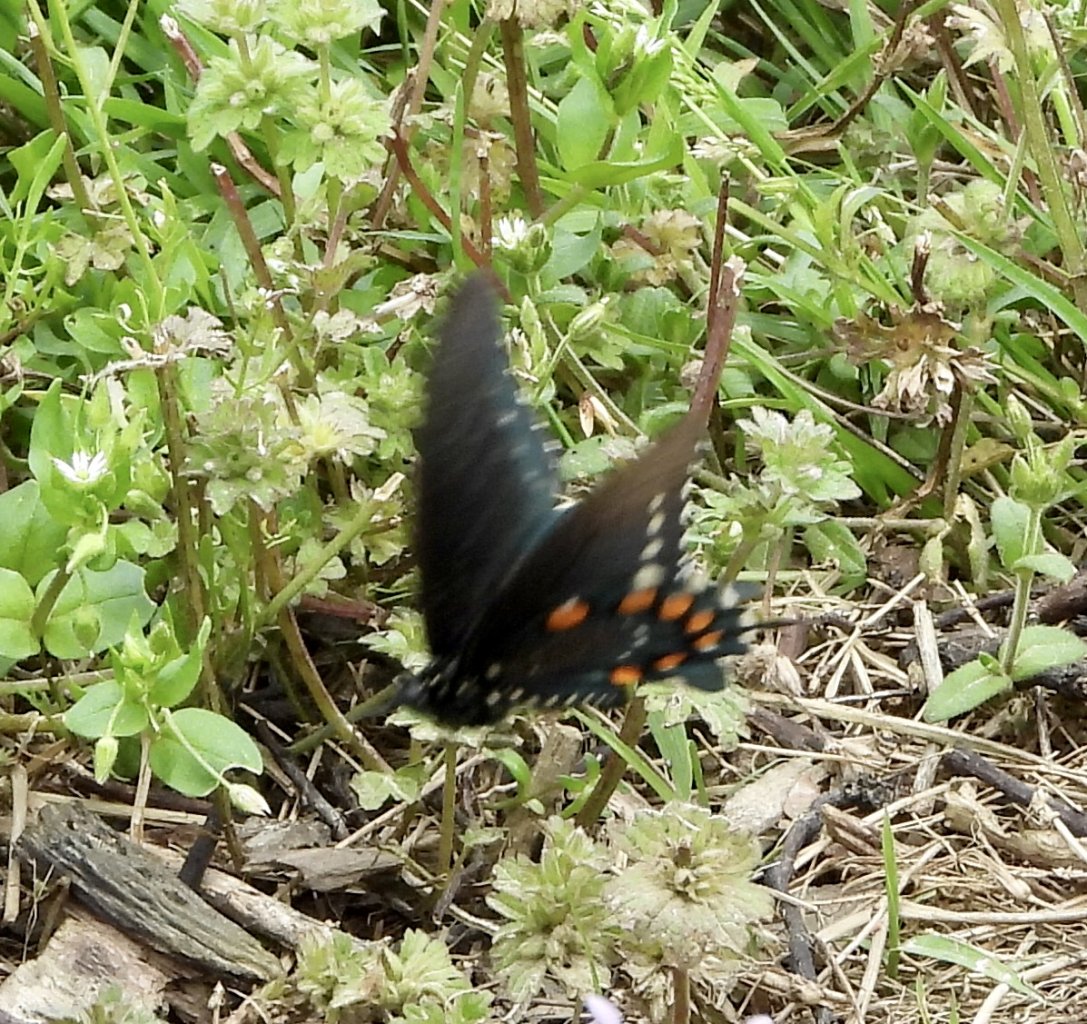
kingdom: Animalia
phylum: Arthropoda
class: Insecta
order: Lepidoptera
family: Papilionidae
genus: Battus
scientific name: Battus philenor
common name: Pipevine Swallowtail
